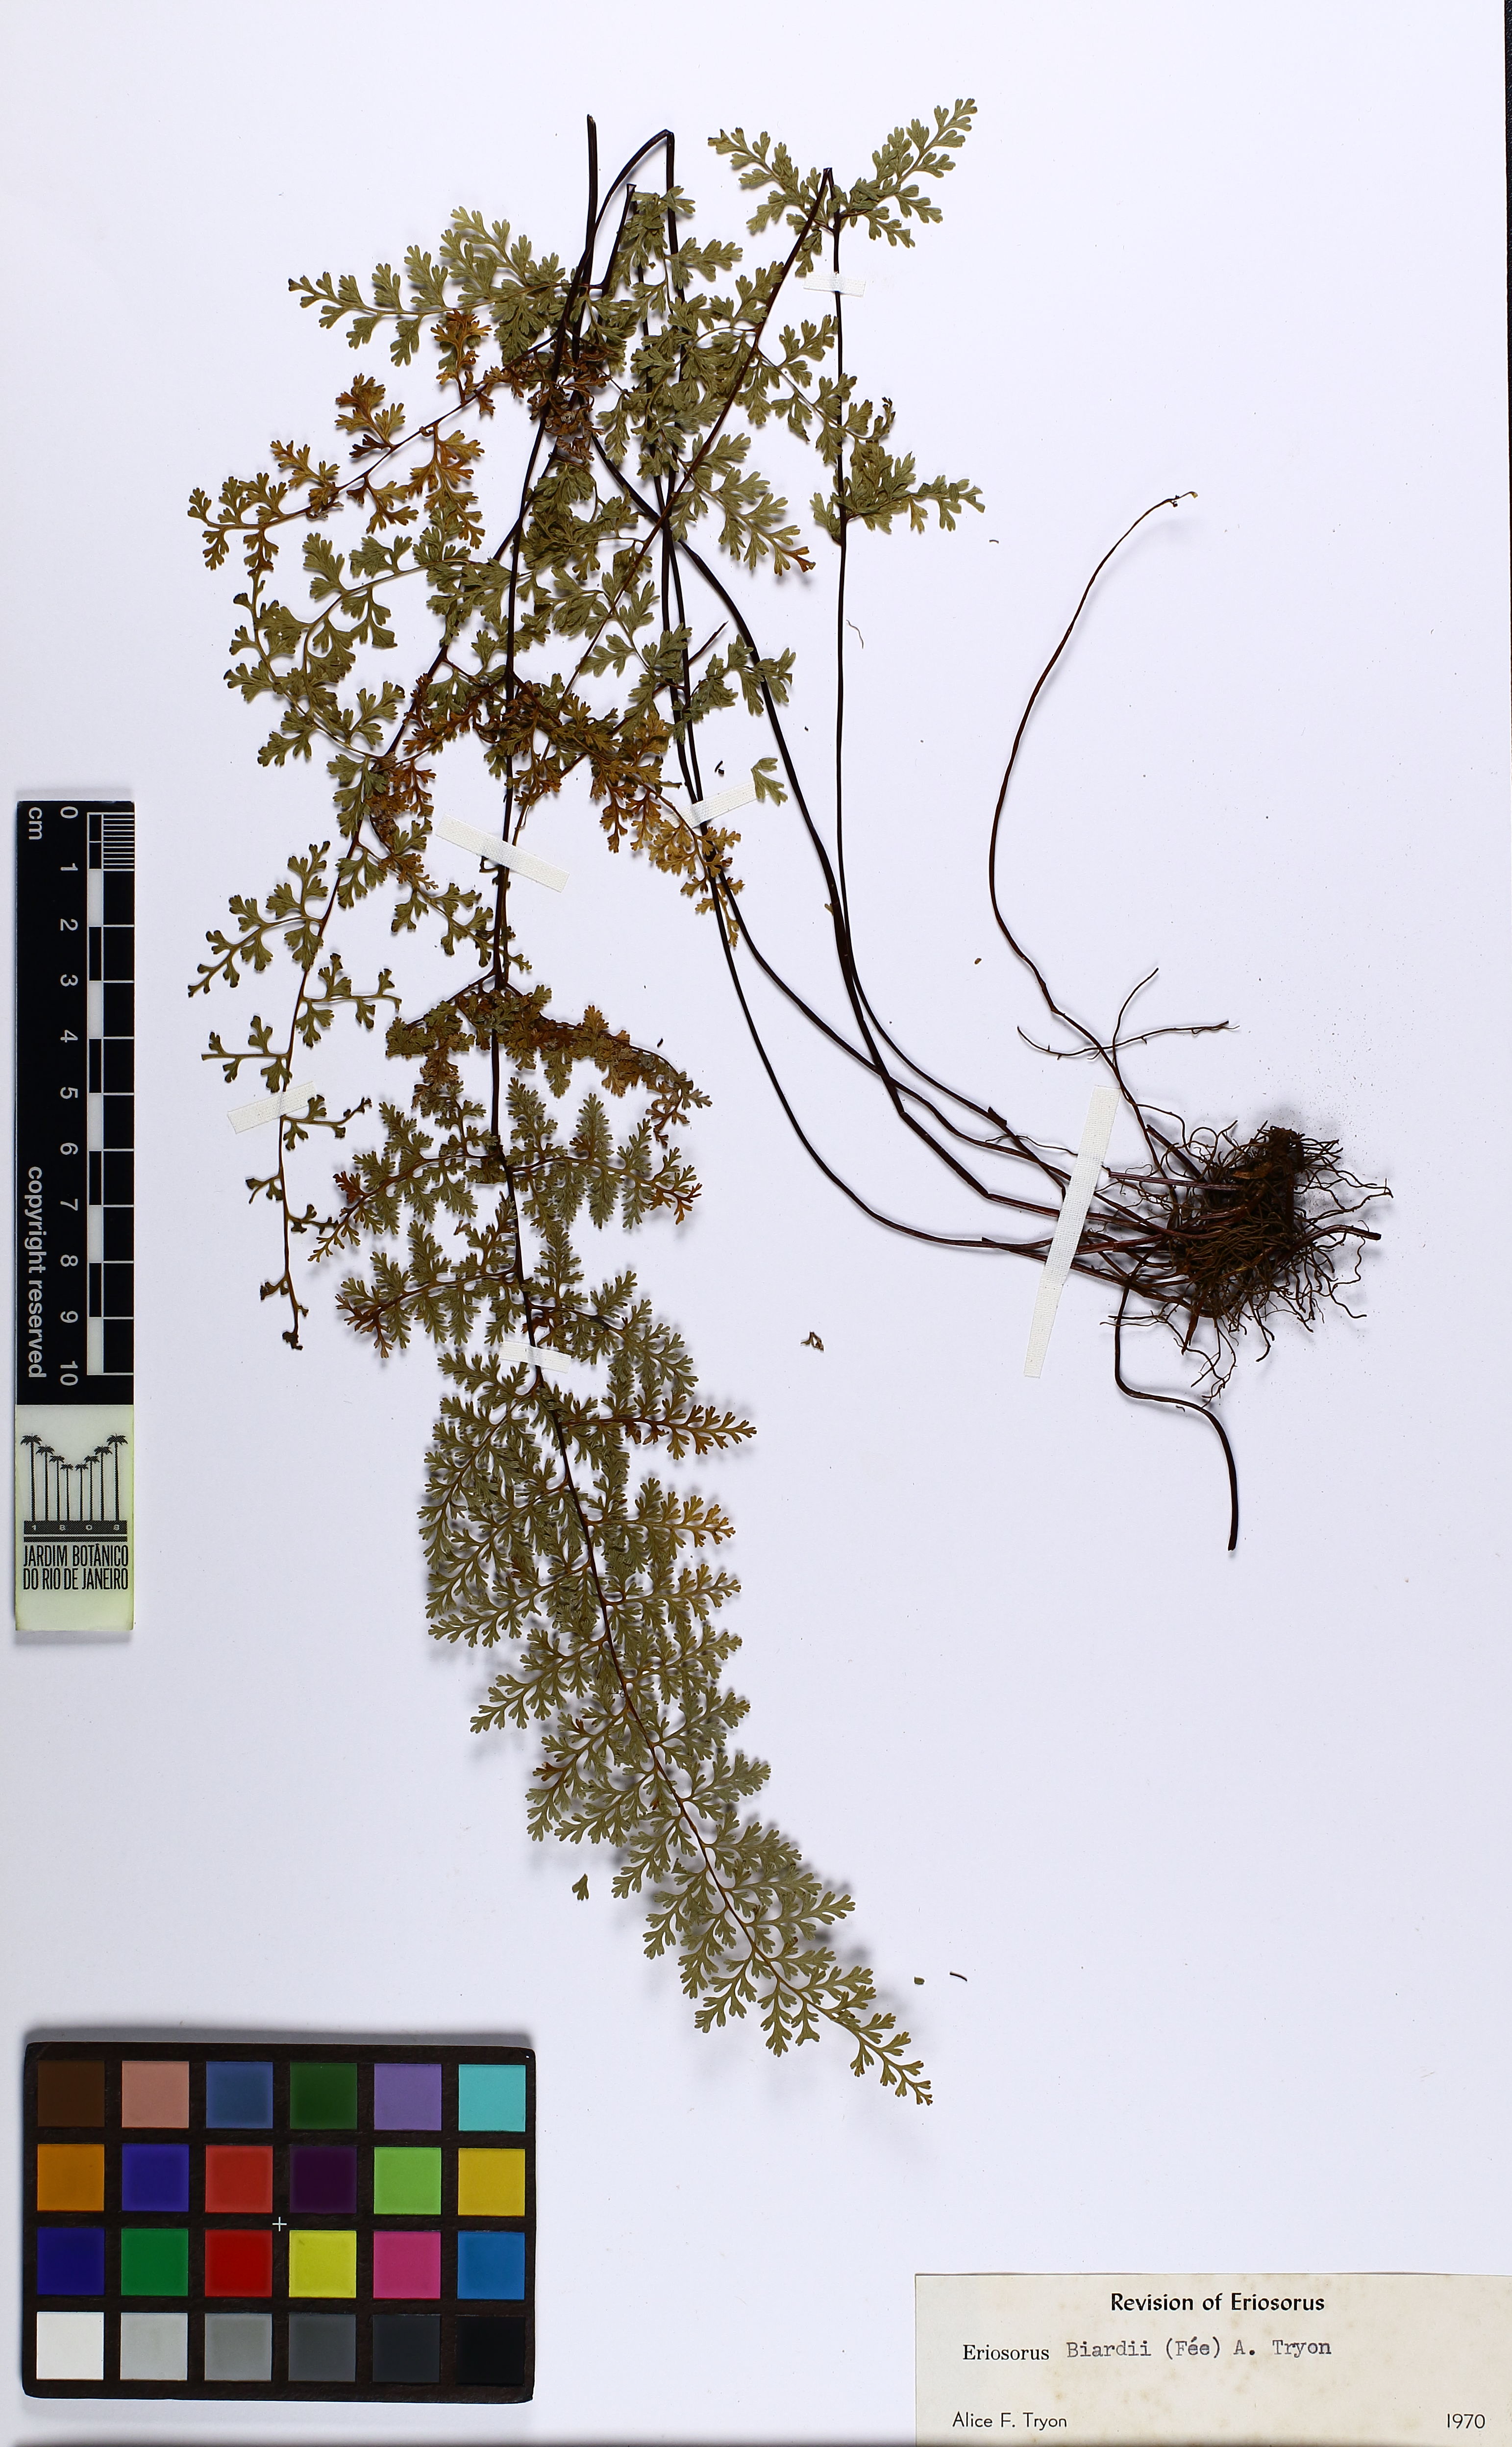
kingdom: Plantae
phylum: Tracheophyta
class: Polypodiopsida
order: Polypodiales
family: Pteridaceae
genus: Jamesonia
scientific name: Jamesonia biardii
